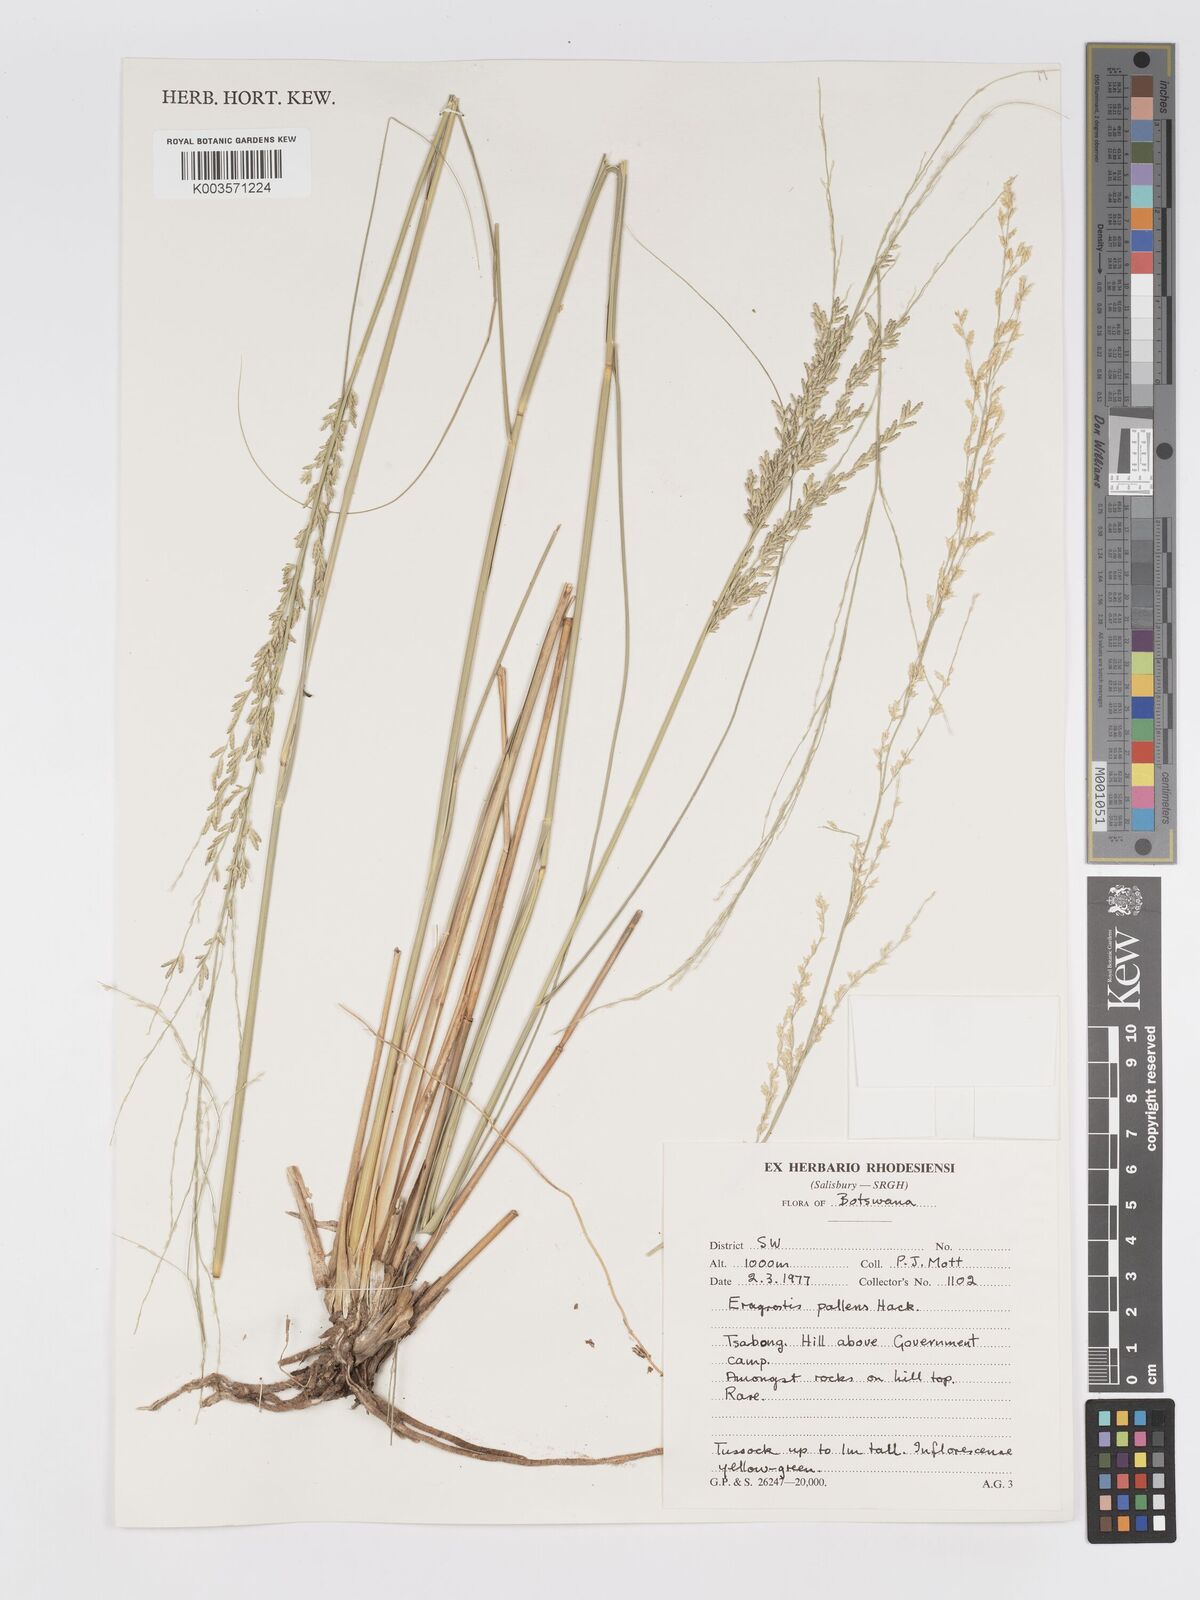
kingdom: Plantae
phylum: Tracheophyta
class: Liliopsida
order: Poales
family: Poaceae
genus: Eragrostis
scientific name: Eragrostis pallens
